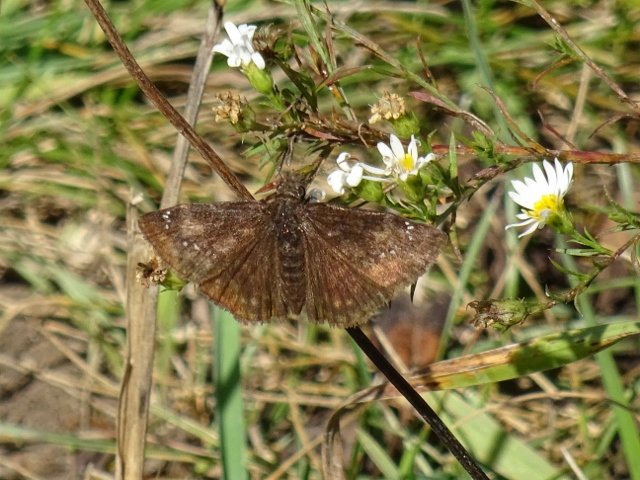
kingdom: Animalia
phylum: Arthropoda
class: Insecta
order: Lepidoptera
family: Hesperiidae
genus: Gesta
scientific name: Gesta
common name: Wild Indigo Duskywing
